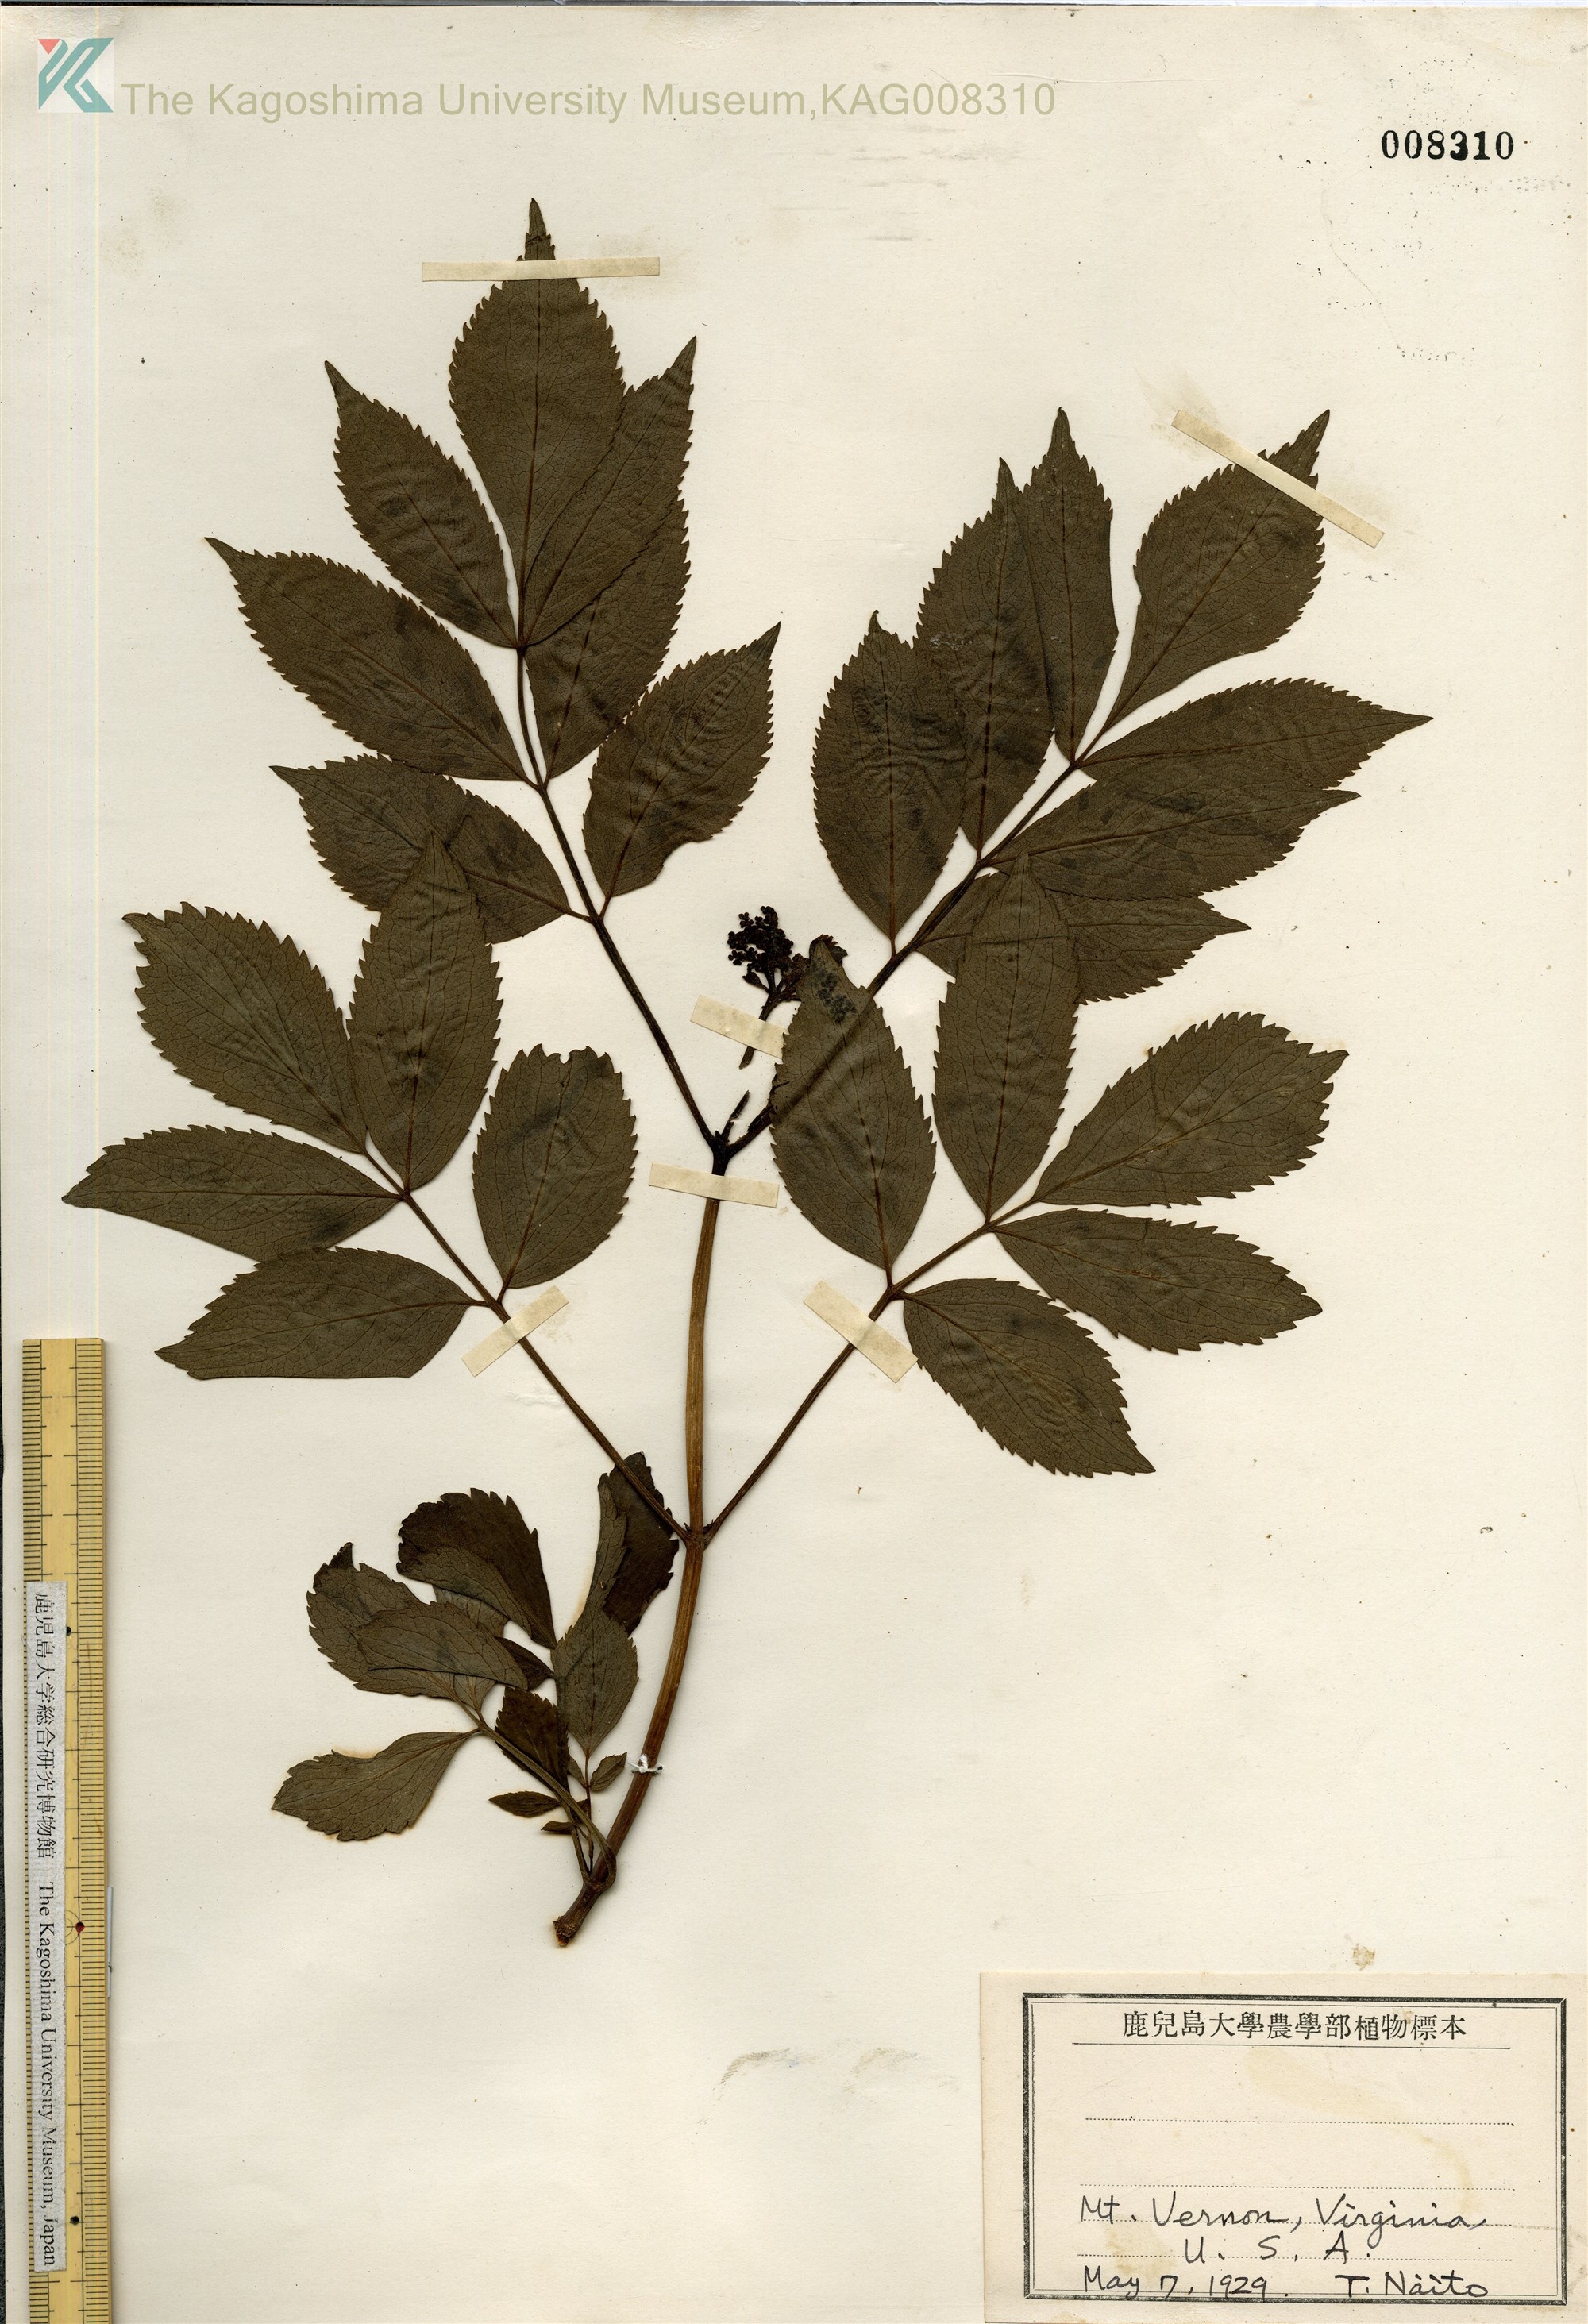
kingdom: Plantae
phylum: Tracheophyta
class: Magnoliopsida
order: Dipsacales
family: Viburnaceae
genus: Sambucus
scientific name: Sambucus canadensis
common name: American elder
